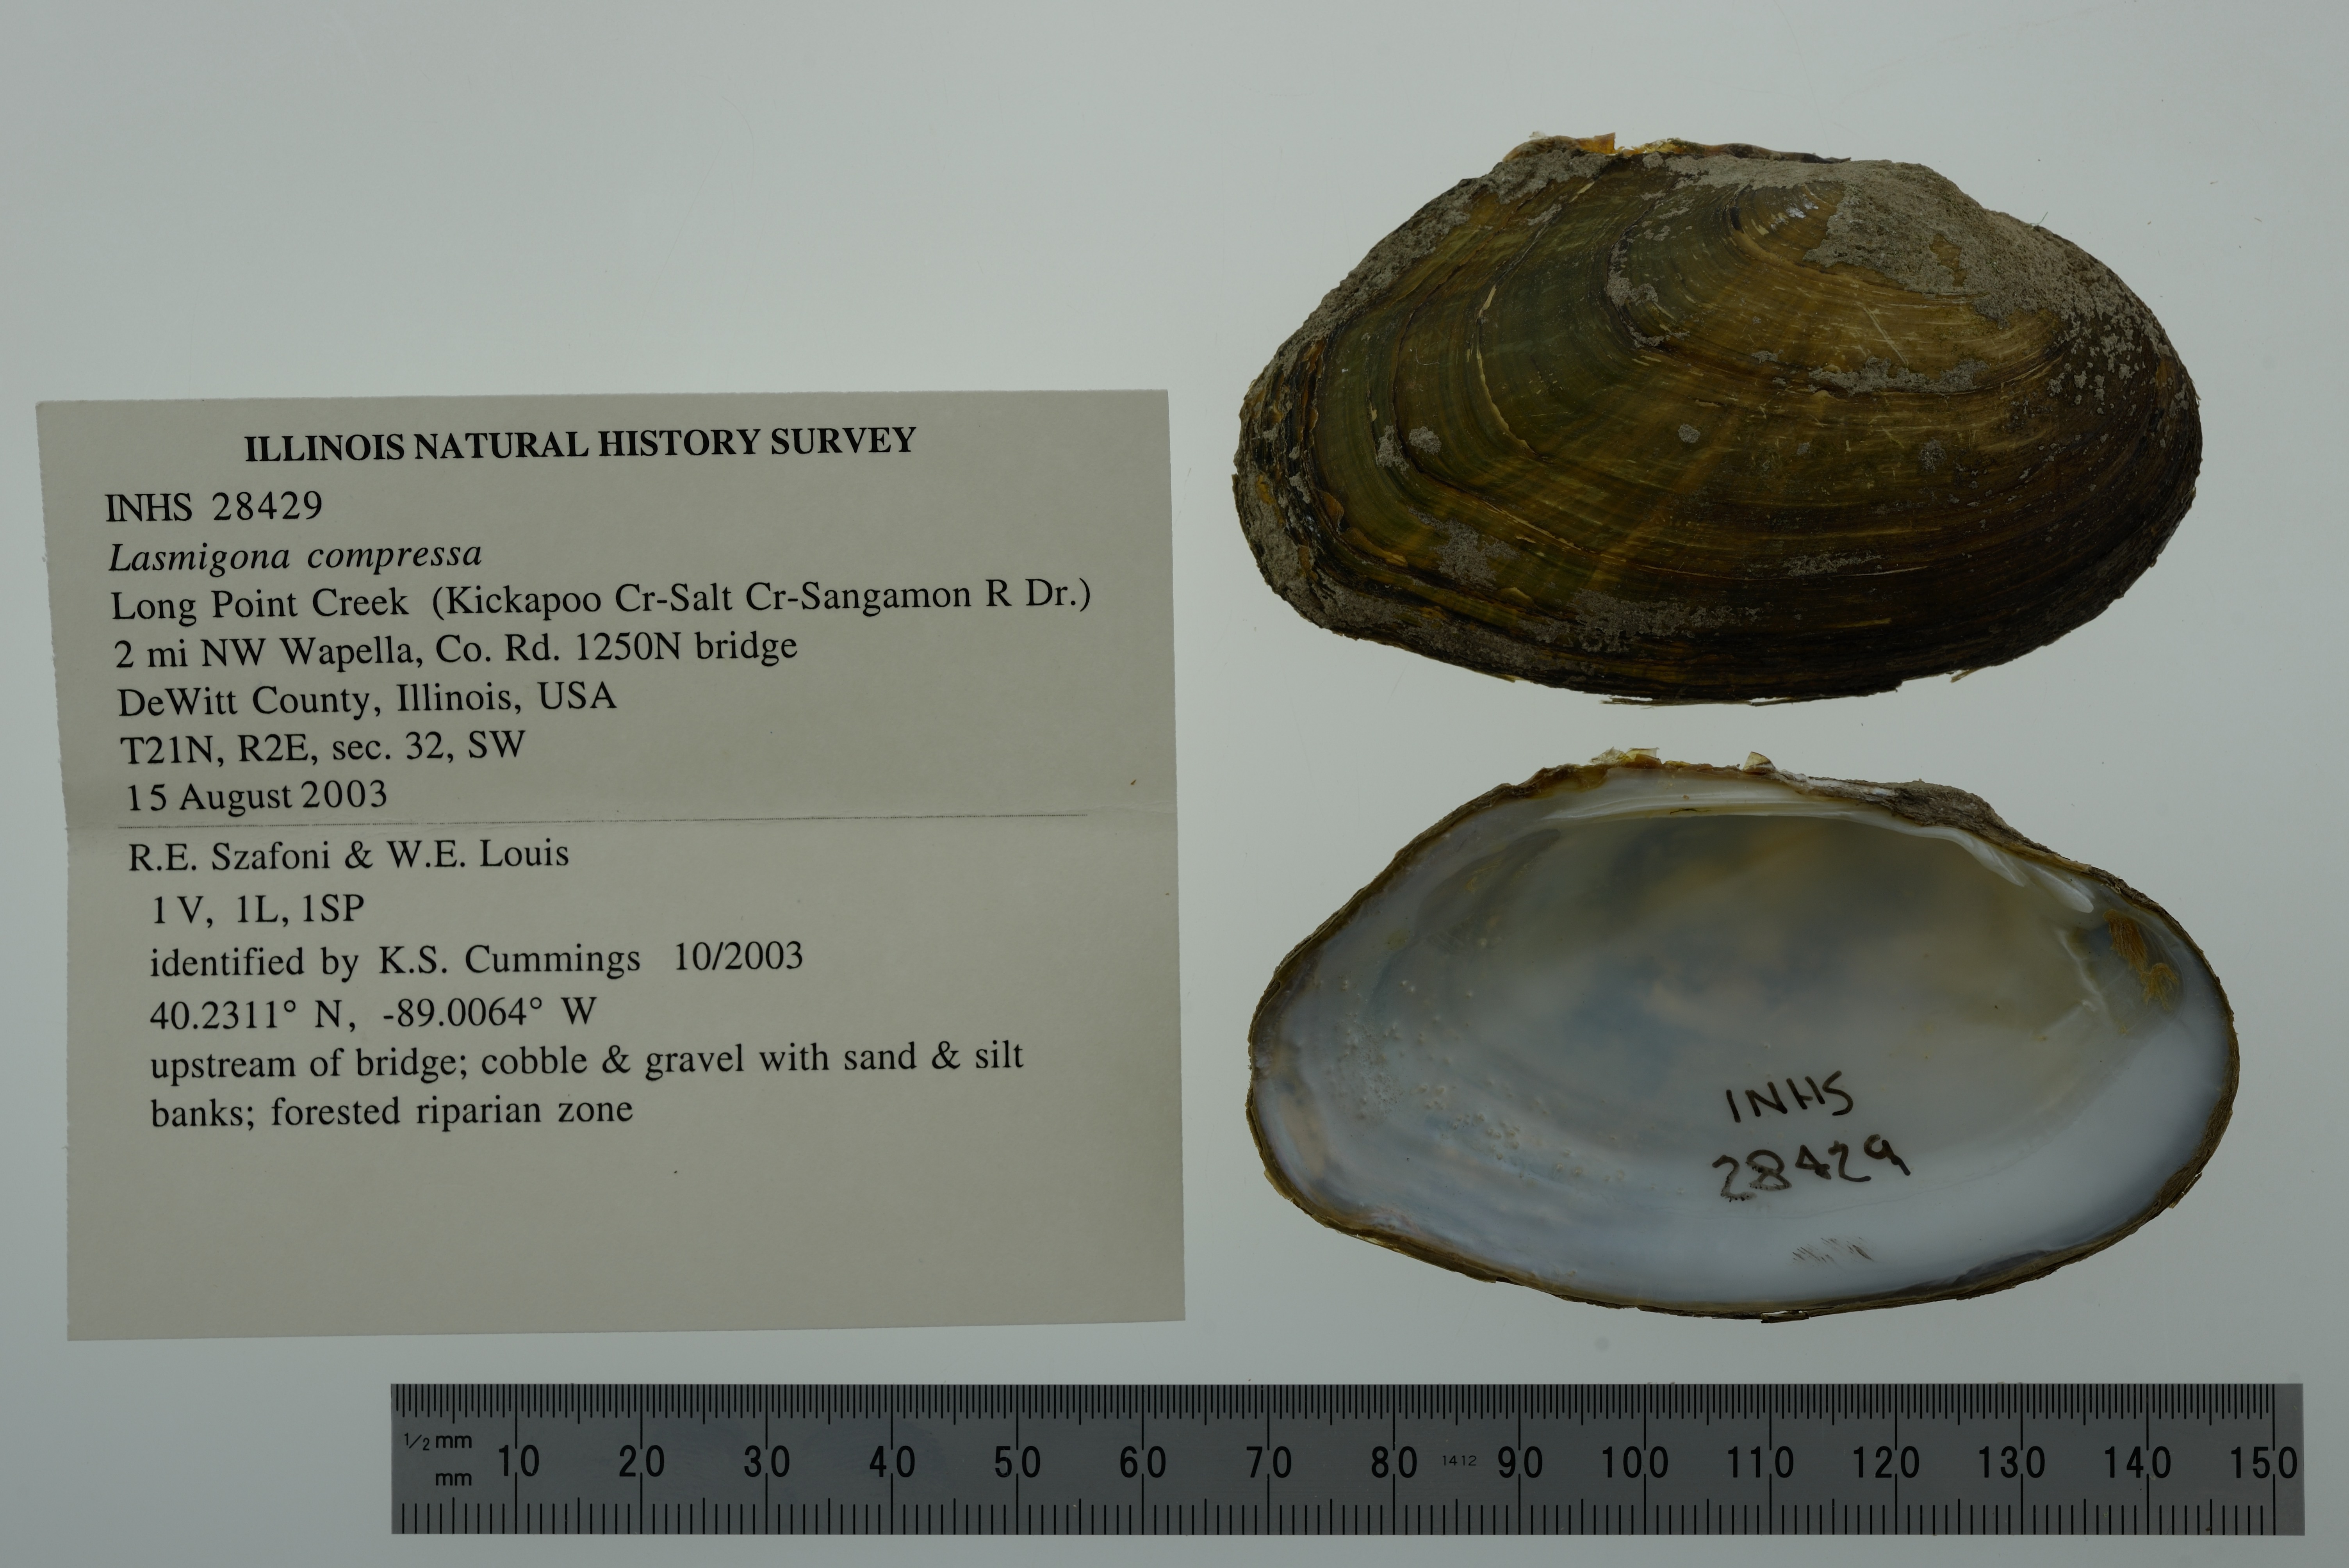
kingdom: Animalia
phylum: Mollusca
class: Bivalvia
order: Unionida
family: Unionidae
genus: Lasmigona
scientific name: Lasmigona compressa
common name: Creek heelsplitter
